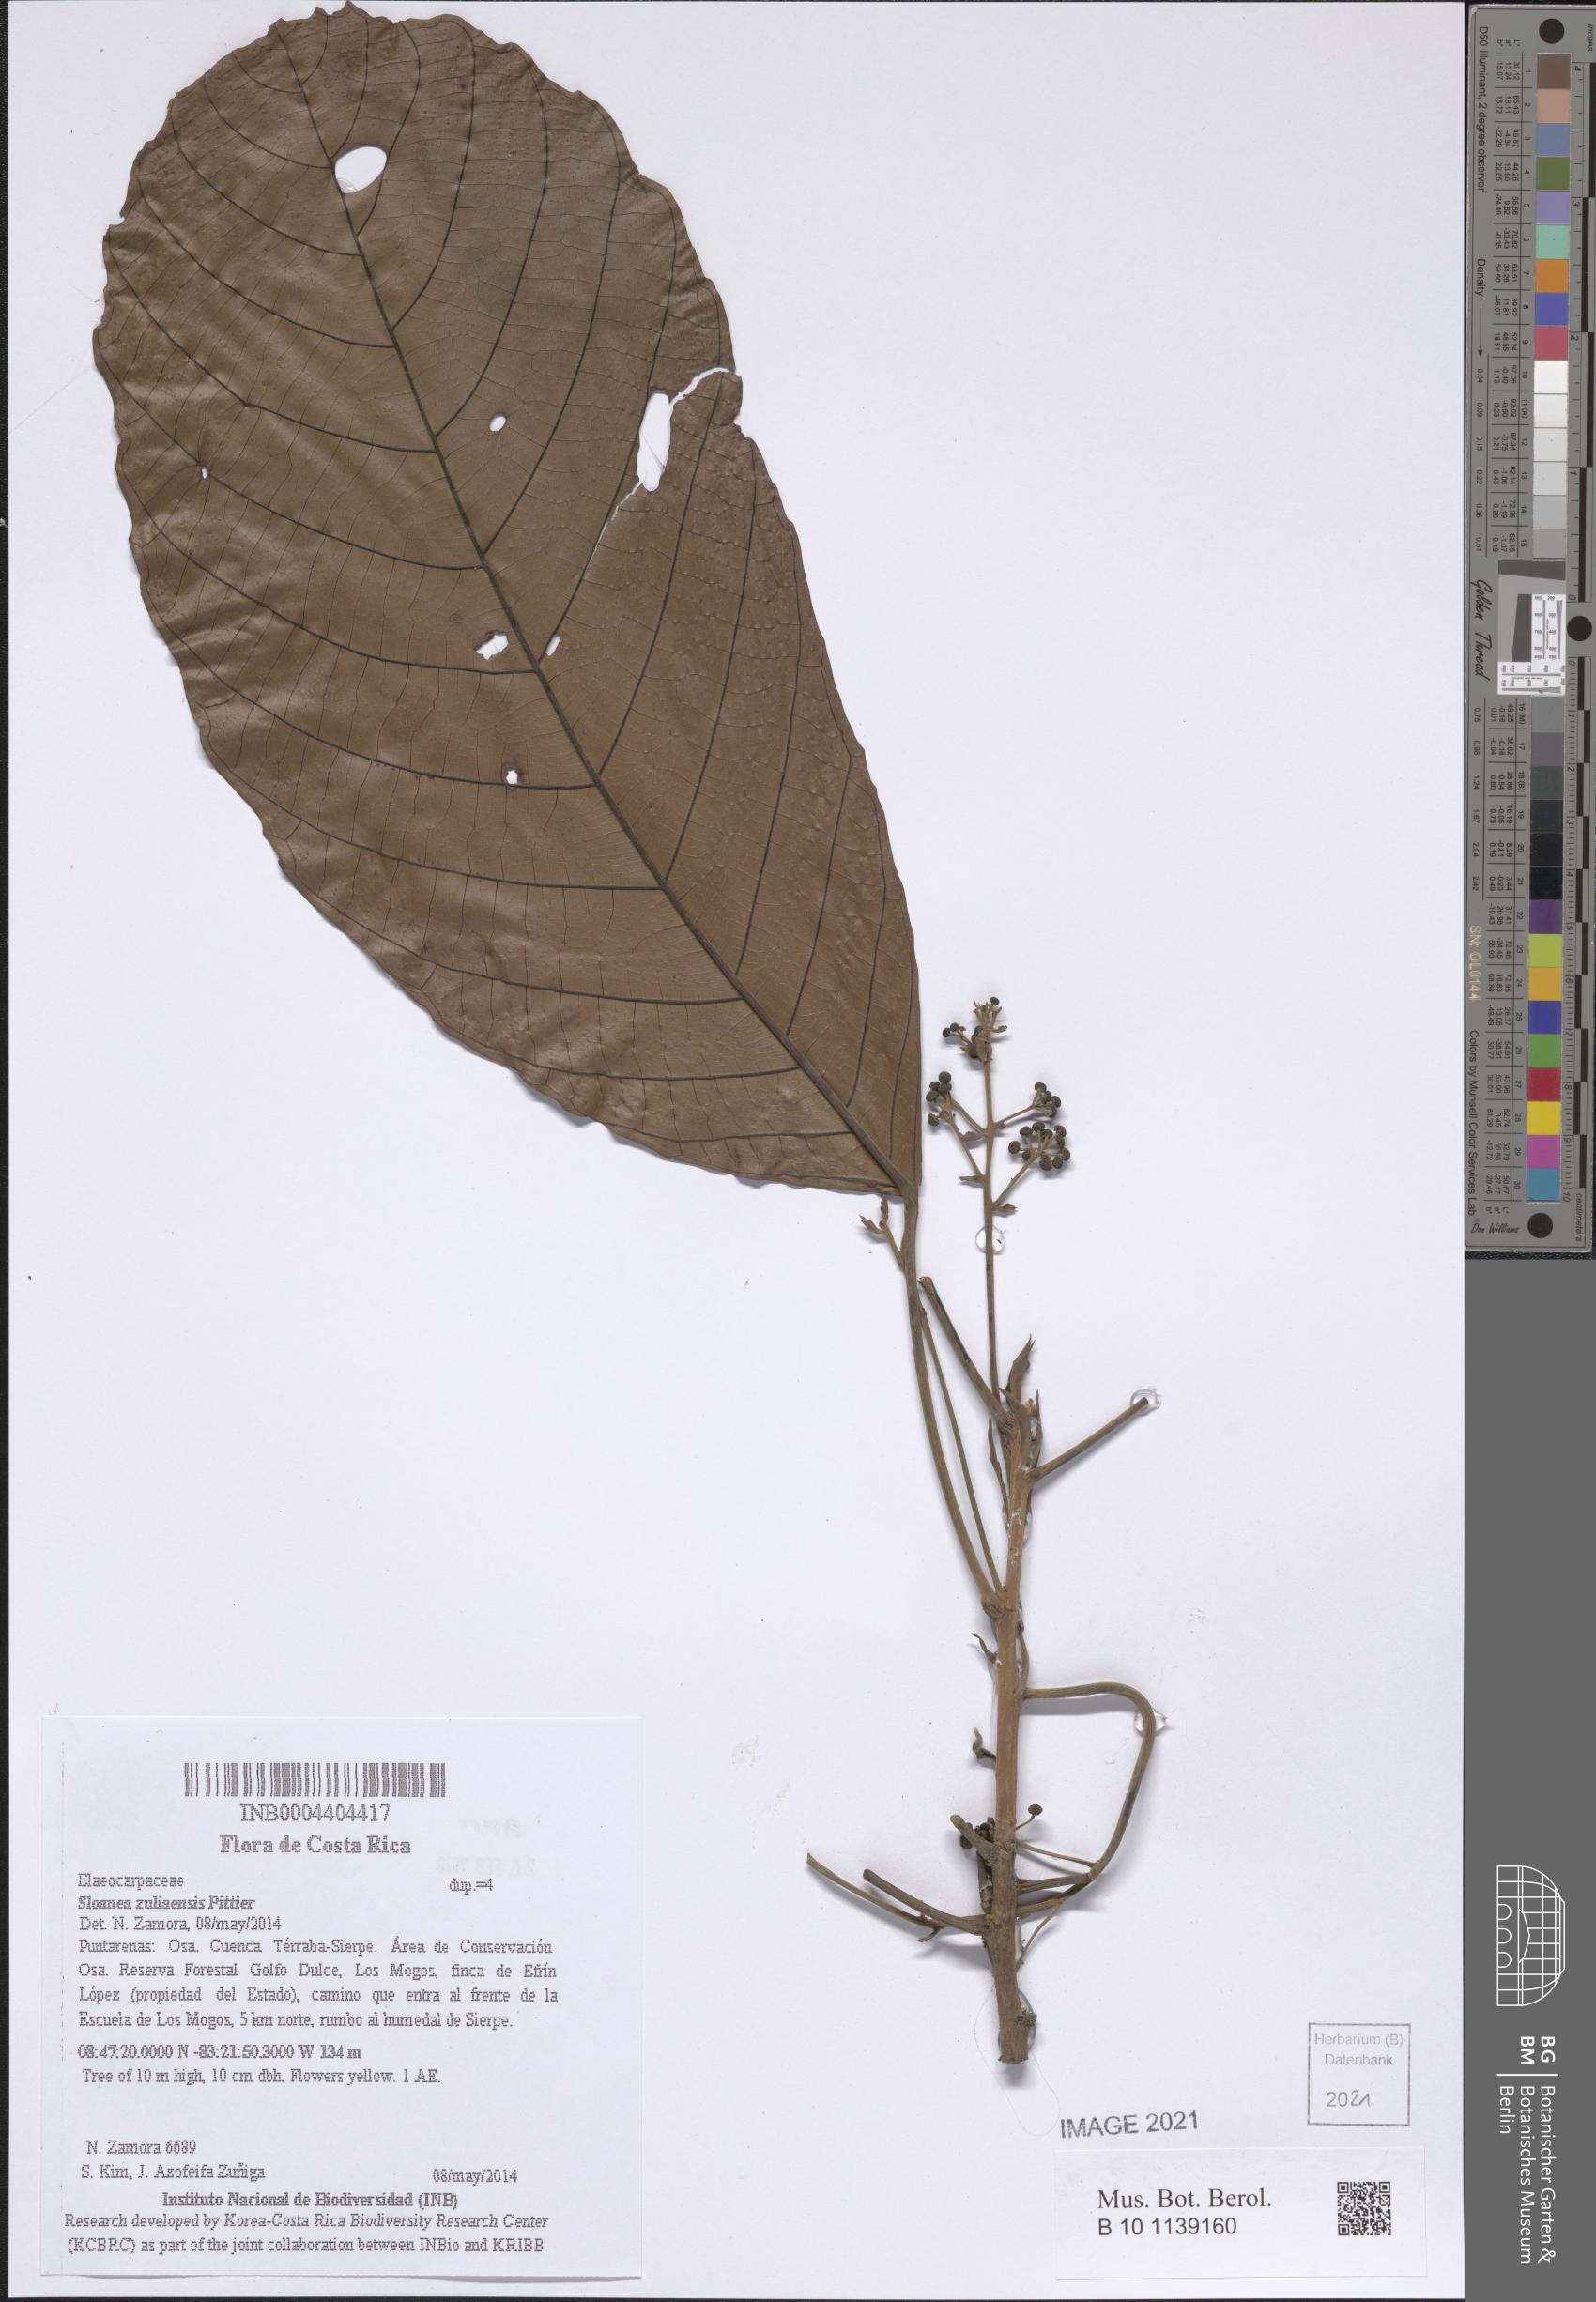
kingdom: Plantae
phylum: Tracheophyta
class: Magnoliopsida
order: Oxalidales
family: Elaeocarpaceae
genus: Sloanea
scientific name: Sloanea zuliaensis
